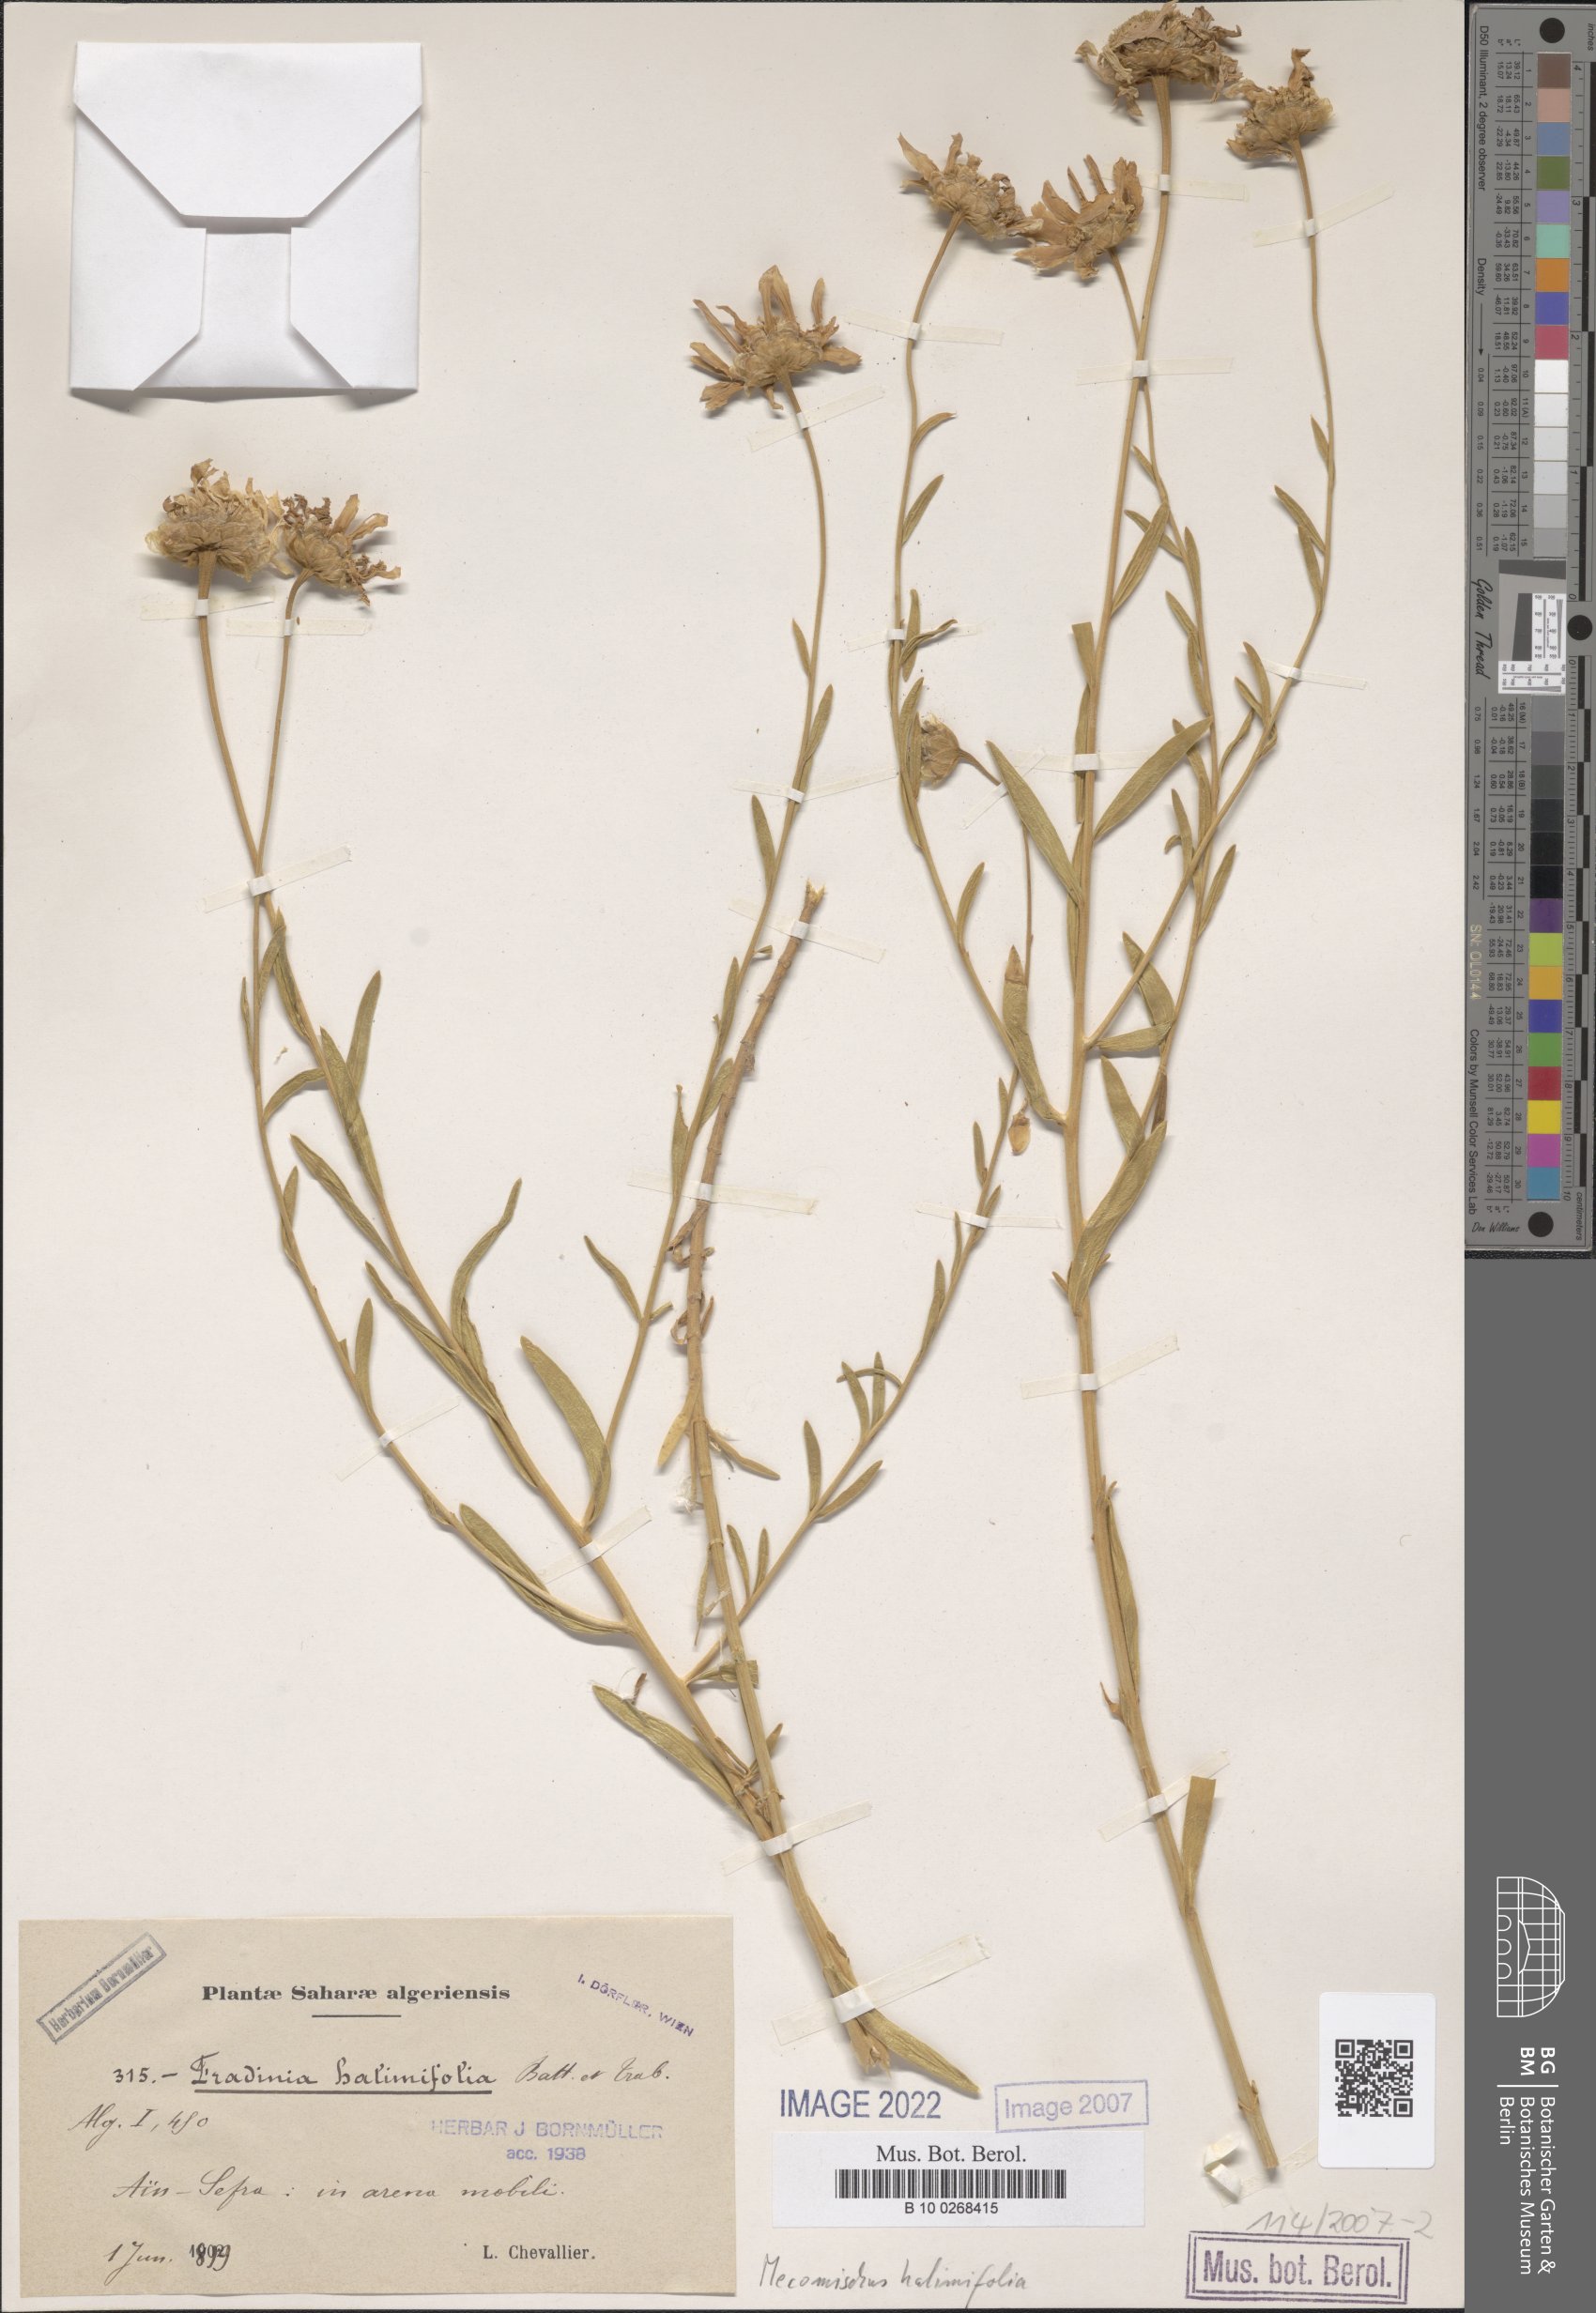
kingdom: Plantae
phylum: Tracheophyta
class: Magnoliopsida
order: Asterales
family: Asteraceae
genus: Mecomischus
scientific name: Mecomischus halimifolius
